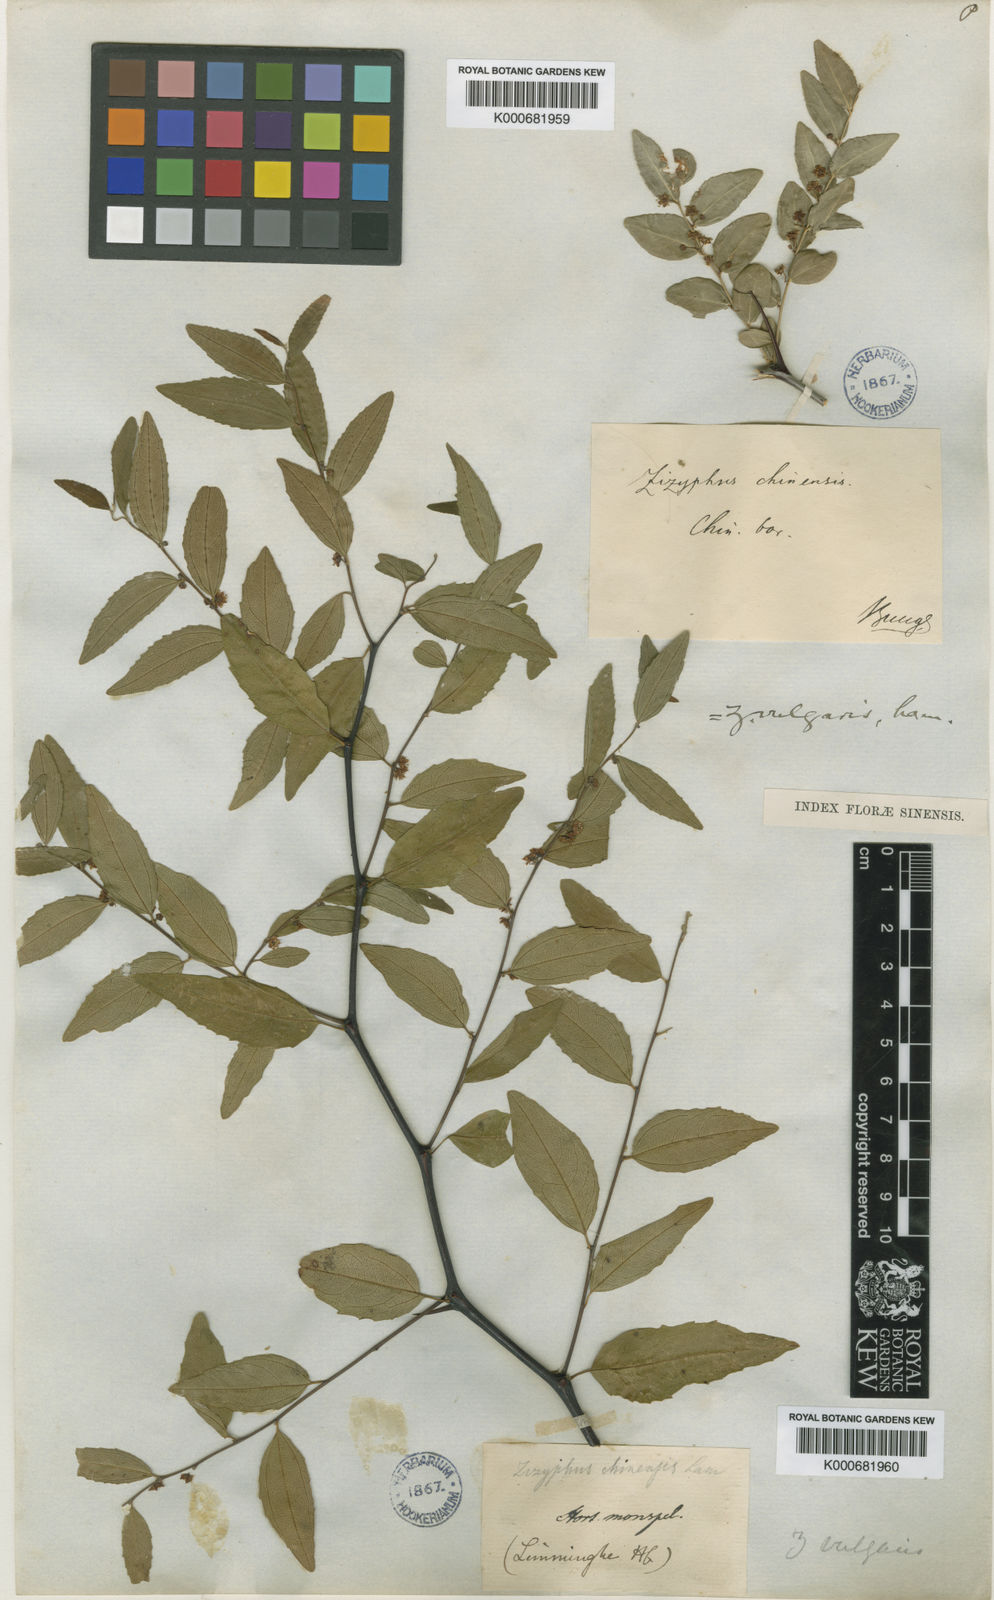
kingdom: Plantae
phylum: Tracheophyta
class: Magnoliopsida
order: Rosales
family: Rhamnaceae
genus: Ziziphus
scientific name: Ziziphus jujuba
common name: Jujube red date
